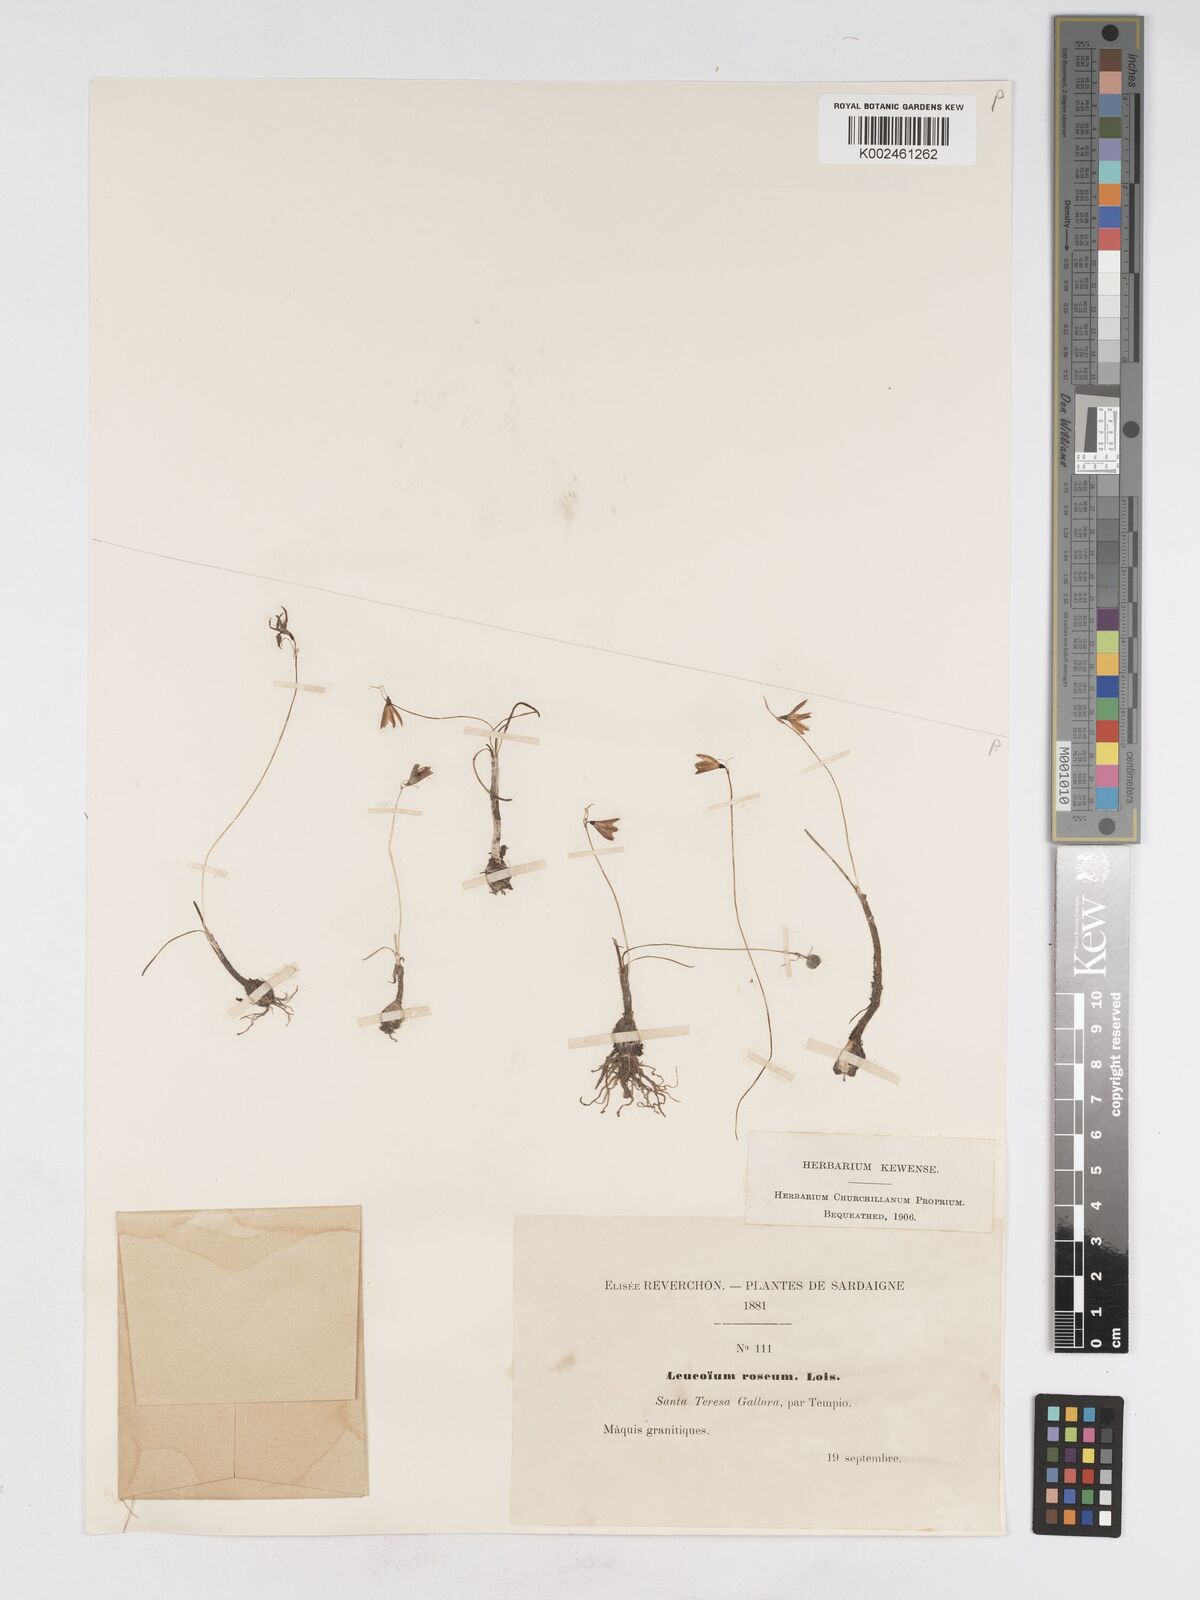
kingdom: Plantae
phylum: Tracheophyta
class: Liliopsida
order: Asparagales
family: Amaryllidaceae
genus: Acis
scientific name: Acis rosea
